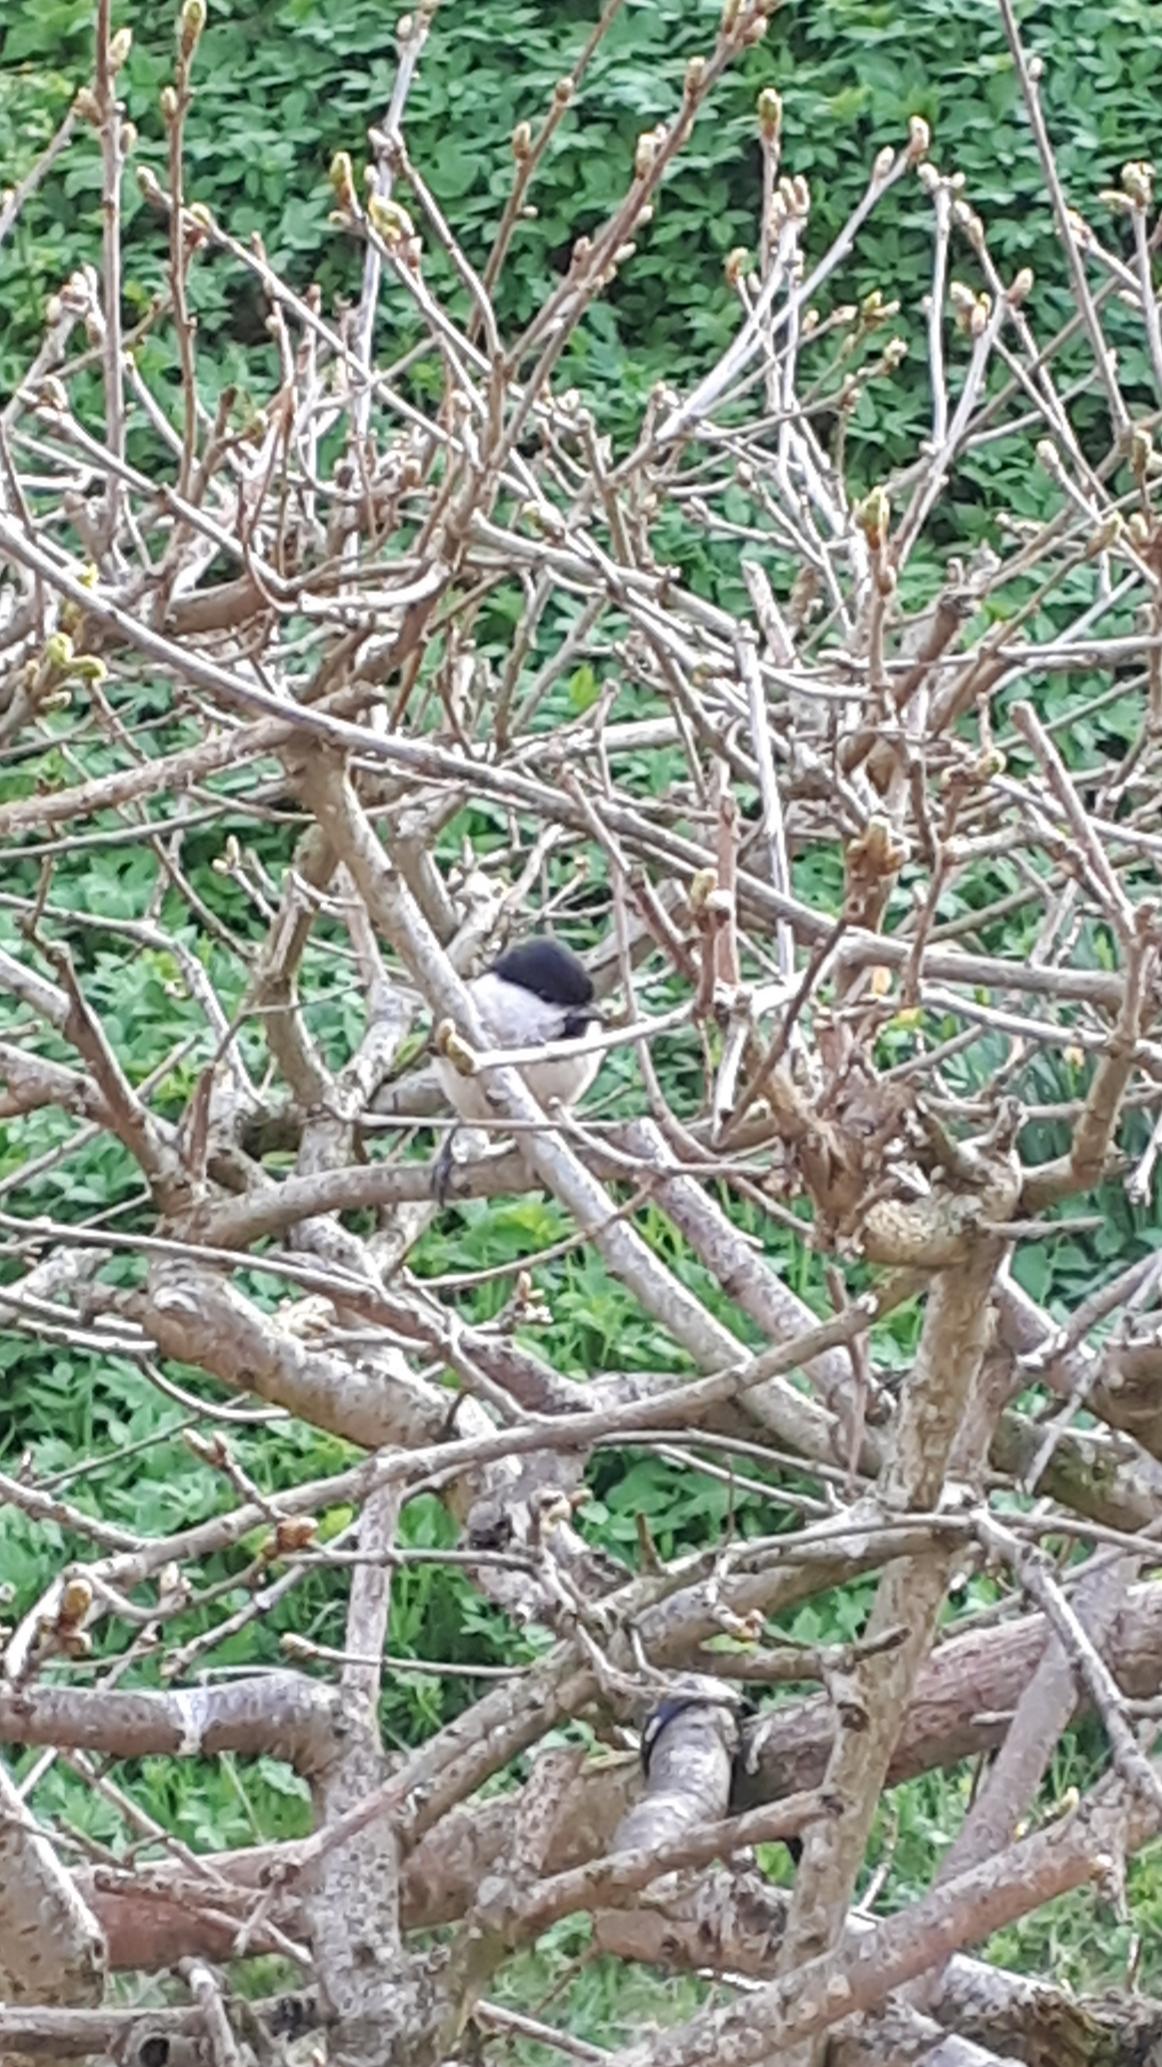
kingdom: Animalia
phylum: Chordata
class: Aves
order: Passeriformes
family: Paridae
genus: Poecile
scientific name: Poecile palustris
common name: Sumpmejse
